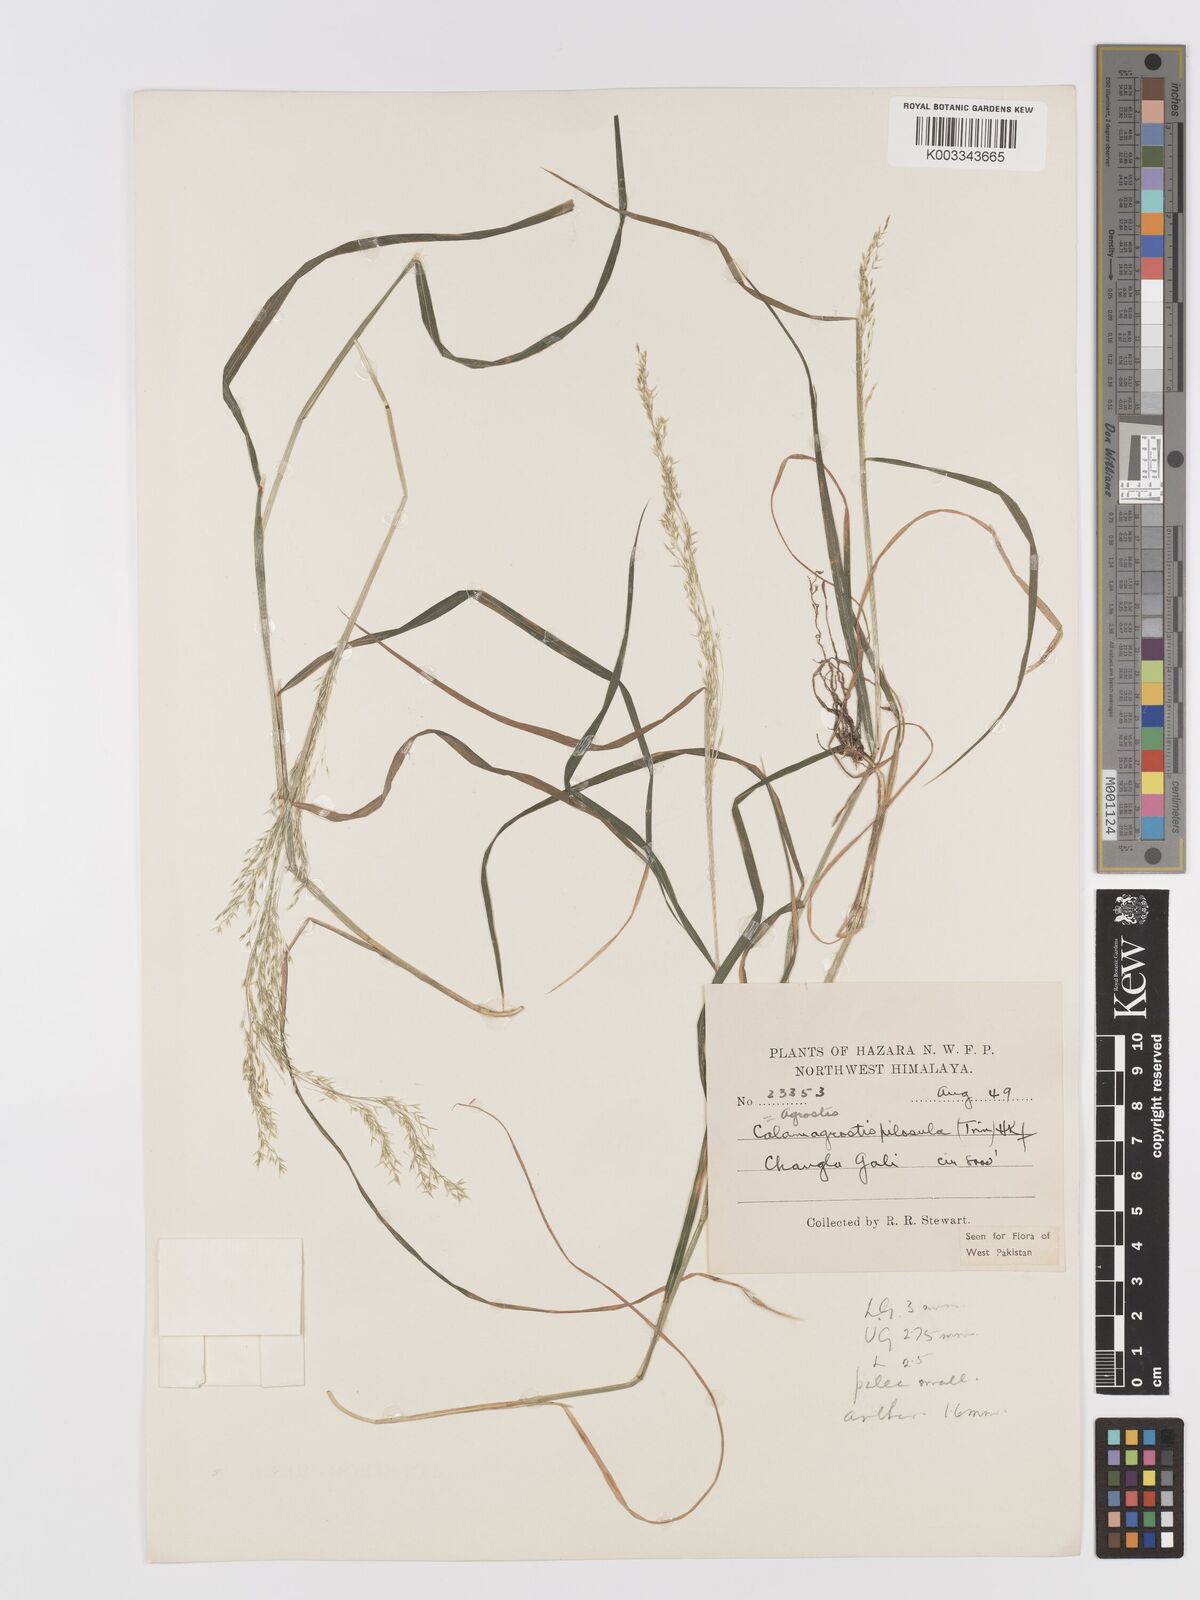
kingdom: Plantae
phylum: Tracheophyta
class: Liliopsida
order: Poales
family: Poaceae
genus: Agrostis
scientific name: Agrostis pilosula
